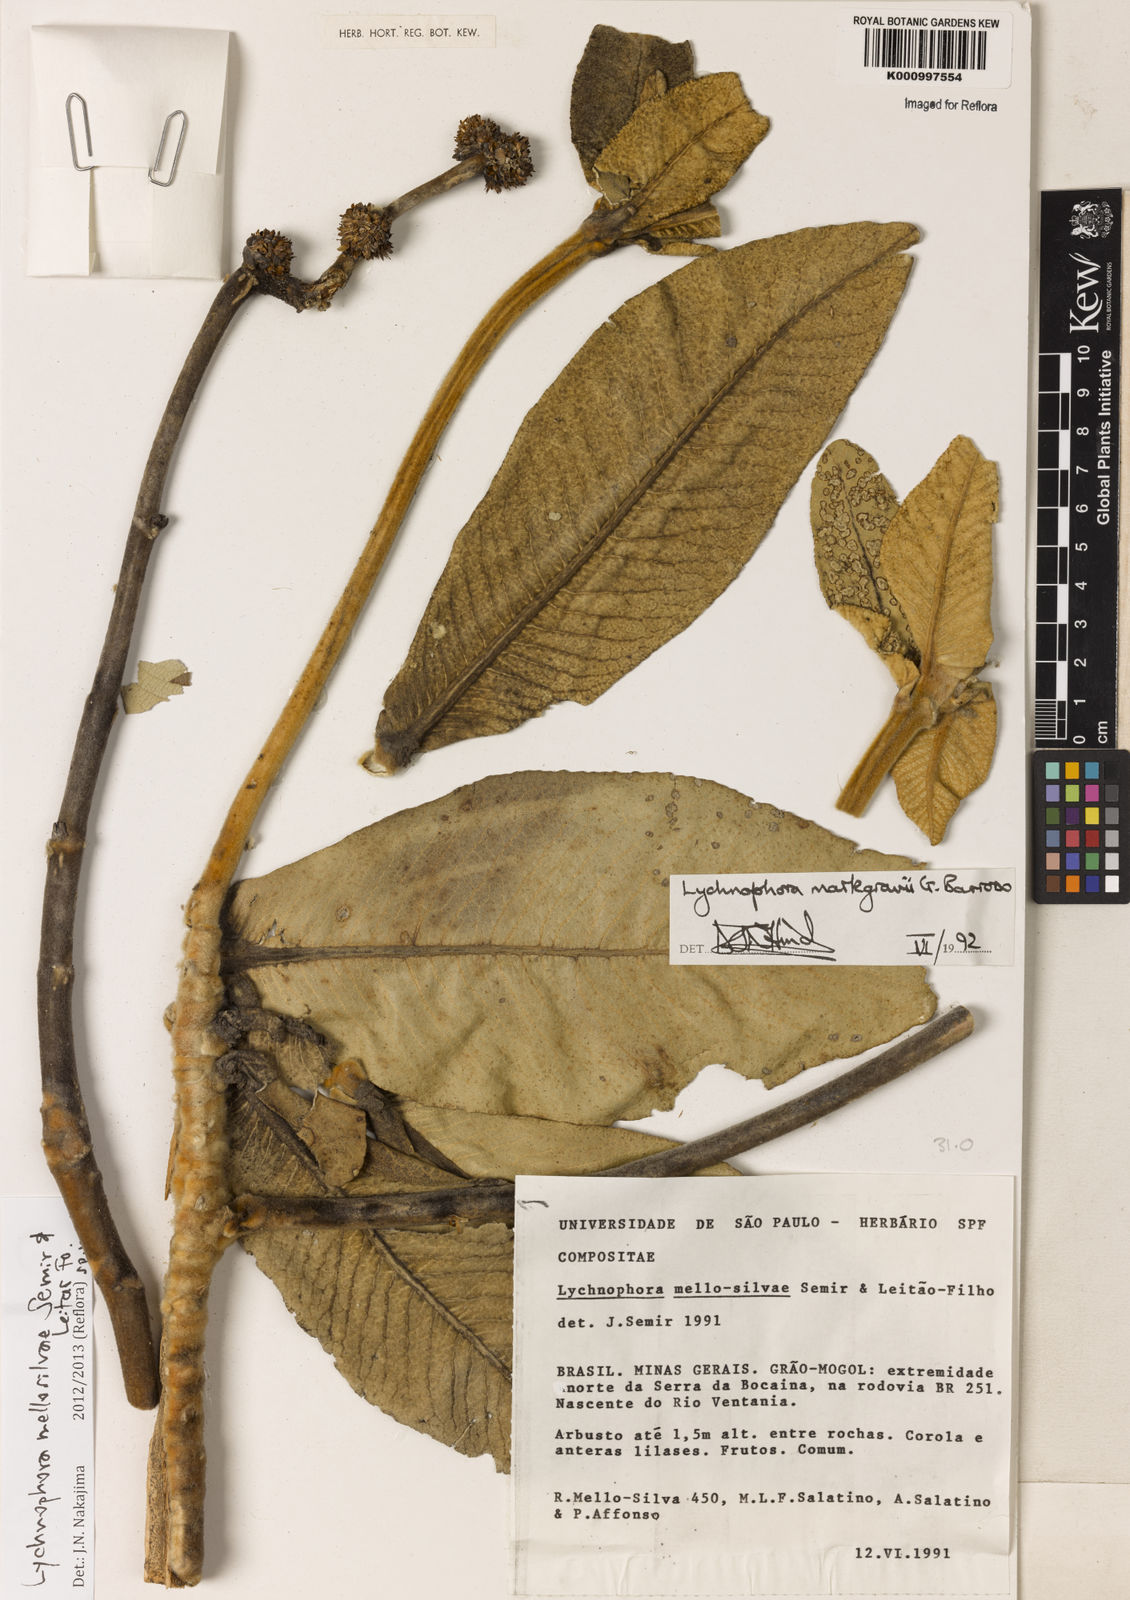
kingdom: Plantae
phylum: Tracheophyta
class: Magnoliopsida
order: Asterales
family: Asteraceae
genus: Lychnophora
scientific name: Lychnophora
